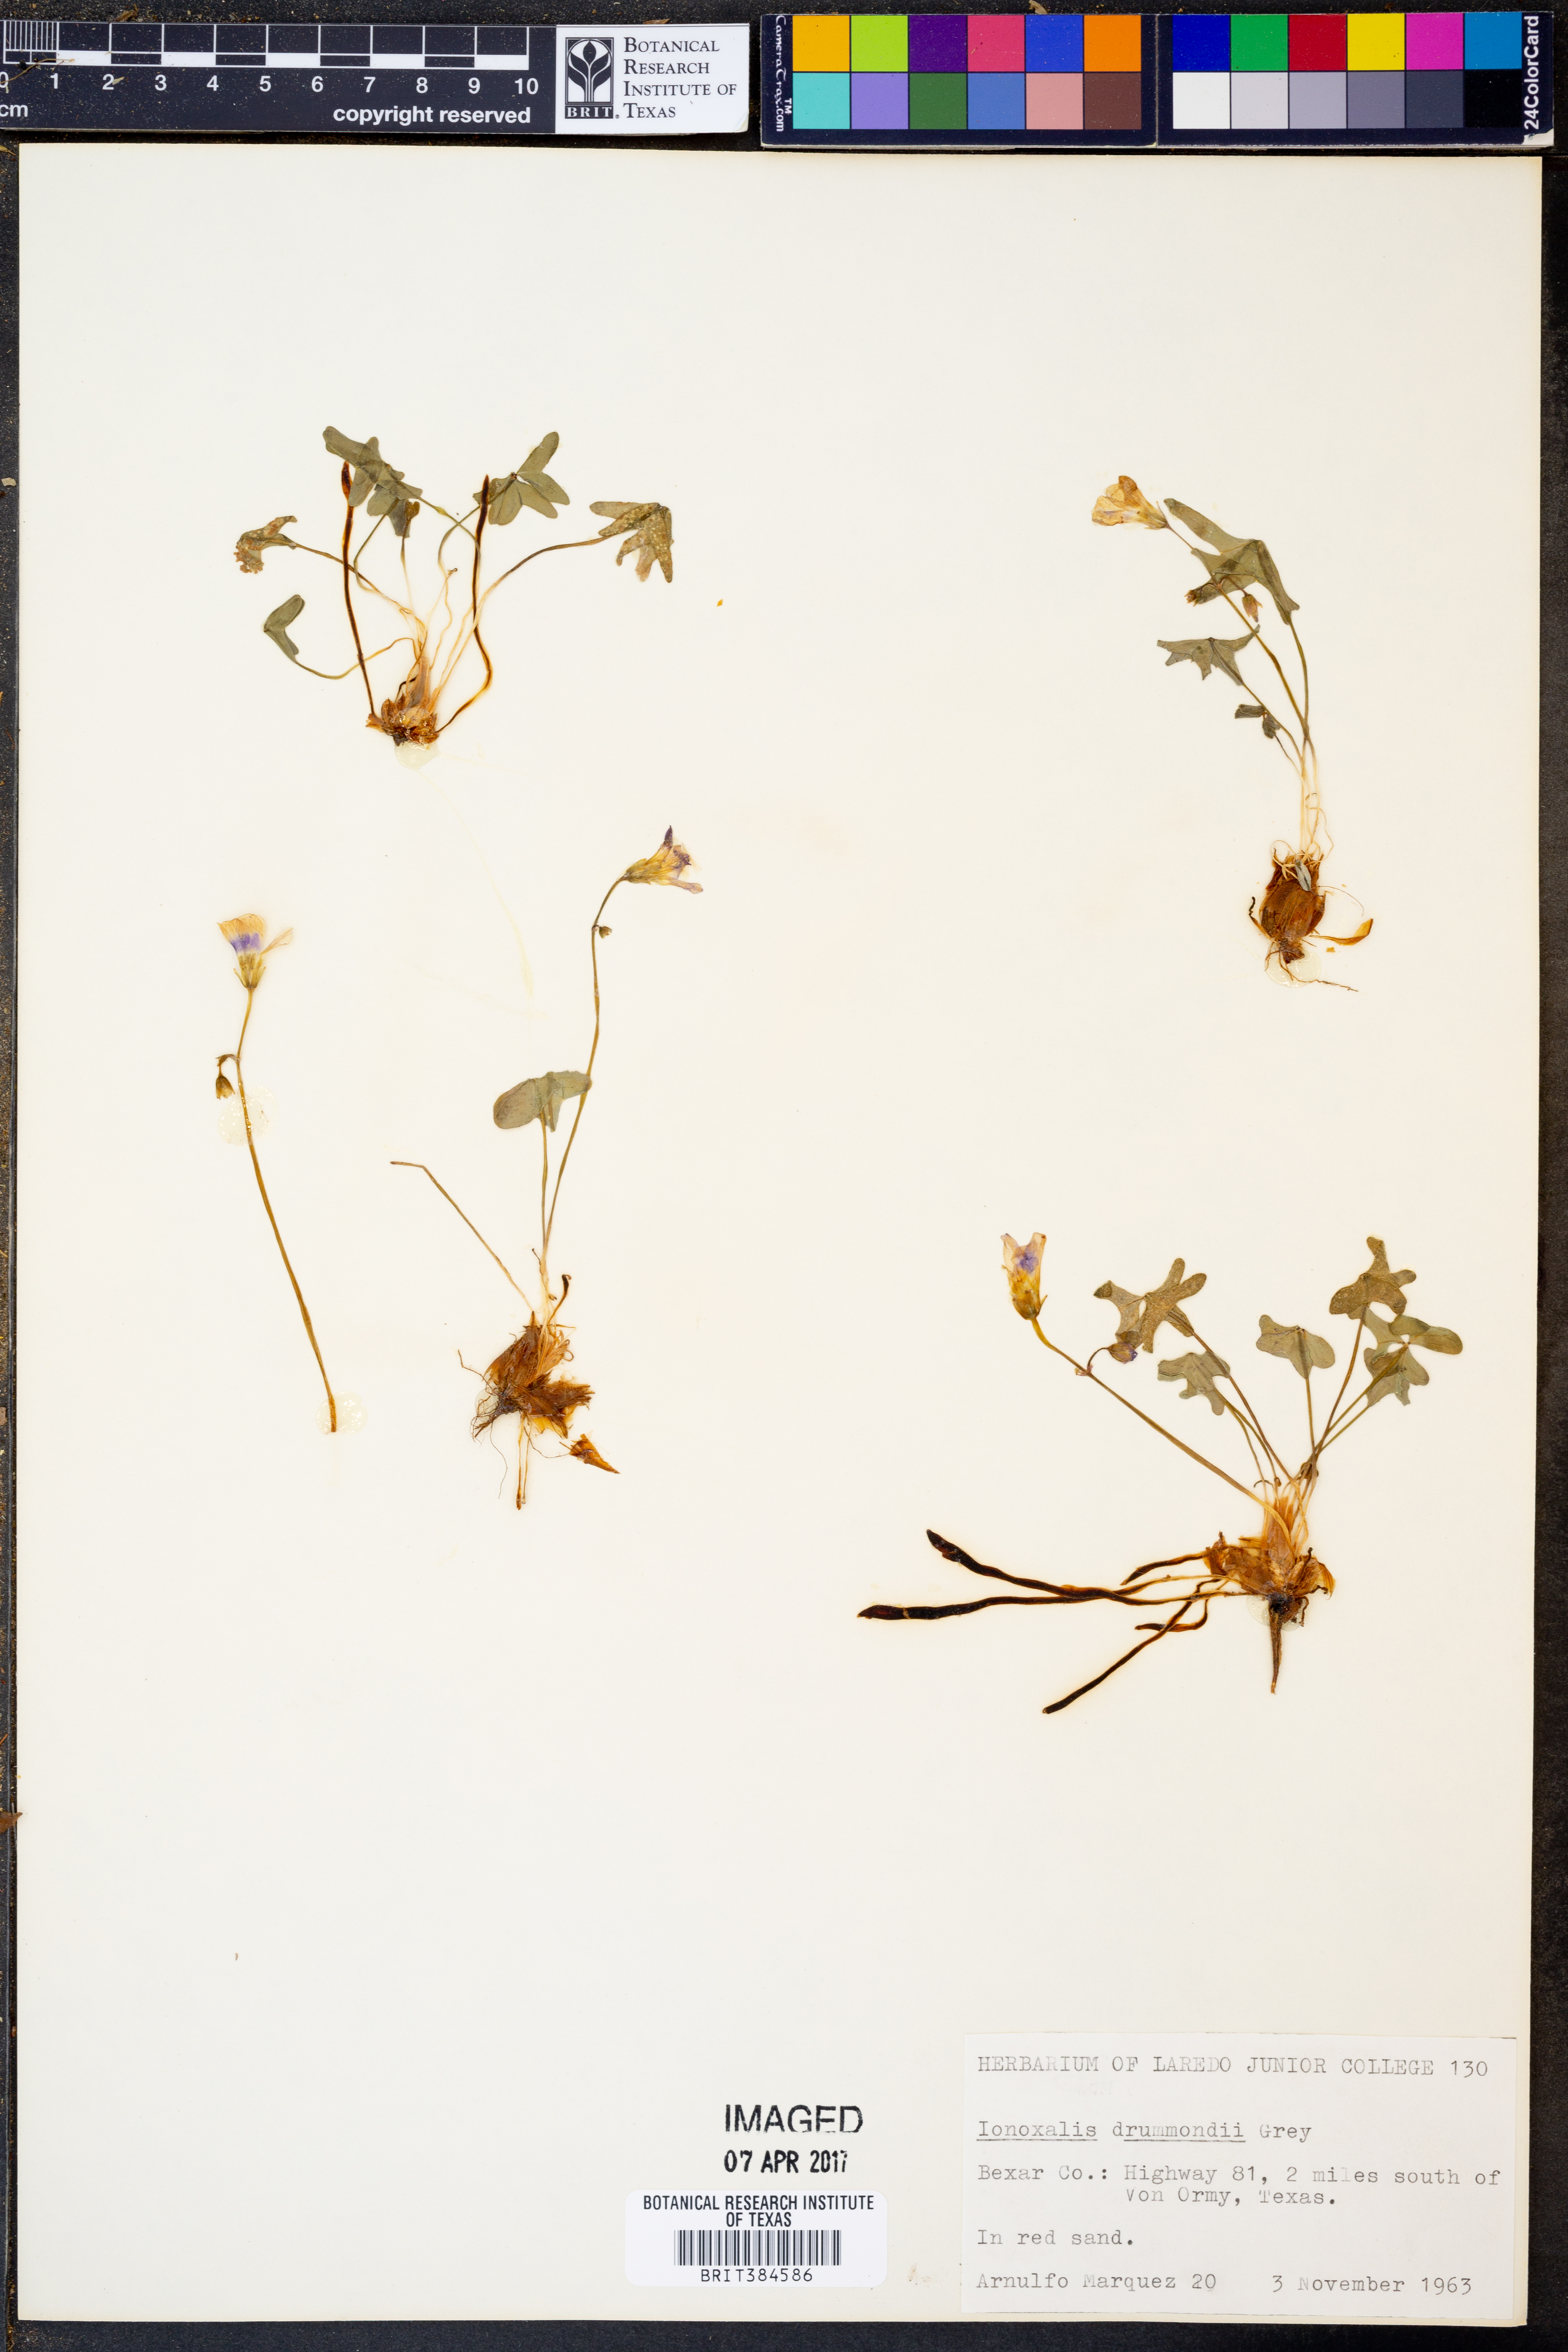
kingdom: Plantae
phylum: Tracheophyta
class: Magnoliopsida
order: Oxalidales
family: Oxalidaceae
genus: Oxalis
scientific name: Oxalis drummondii
